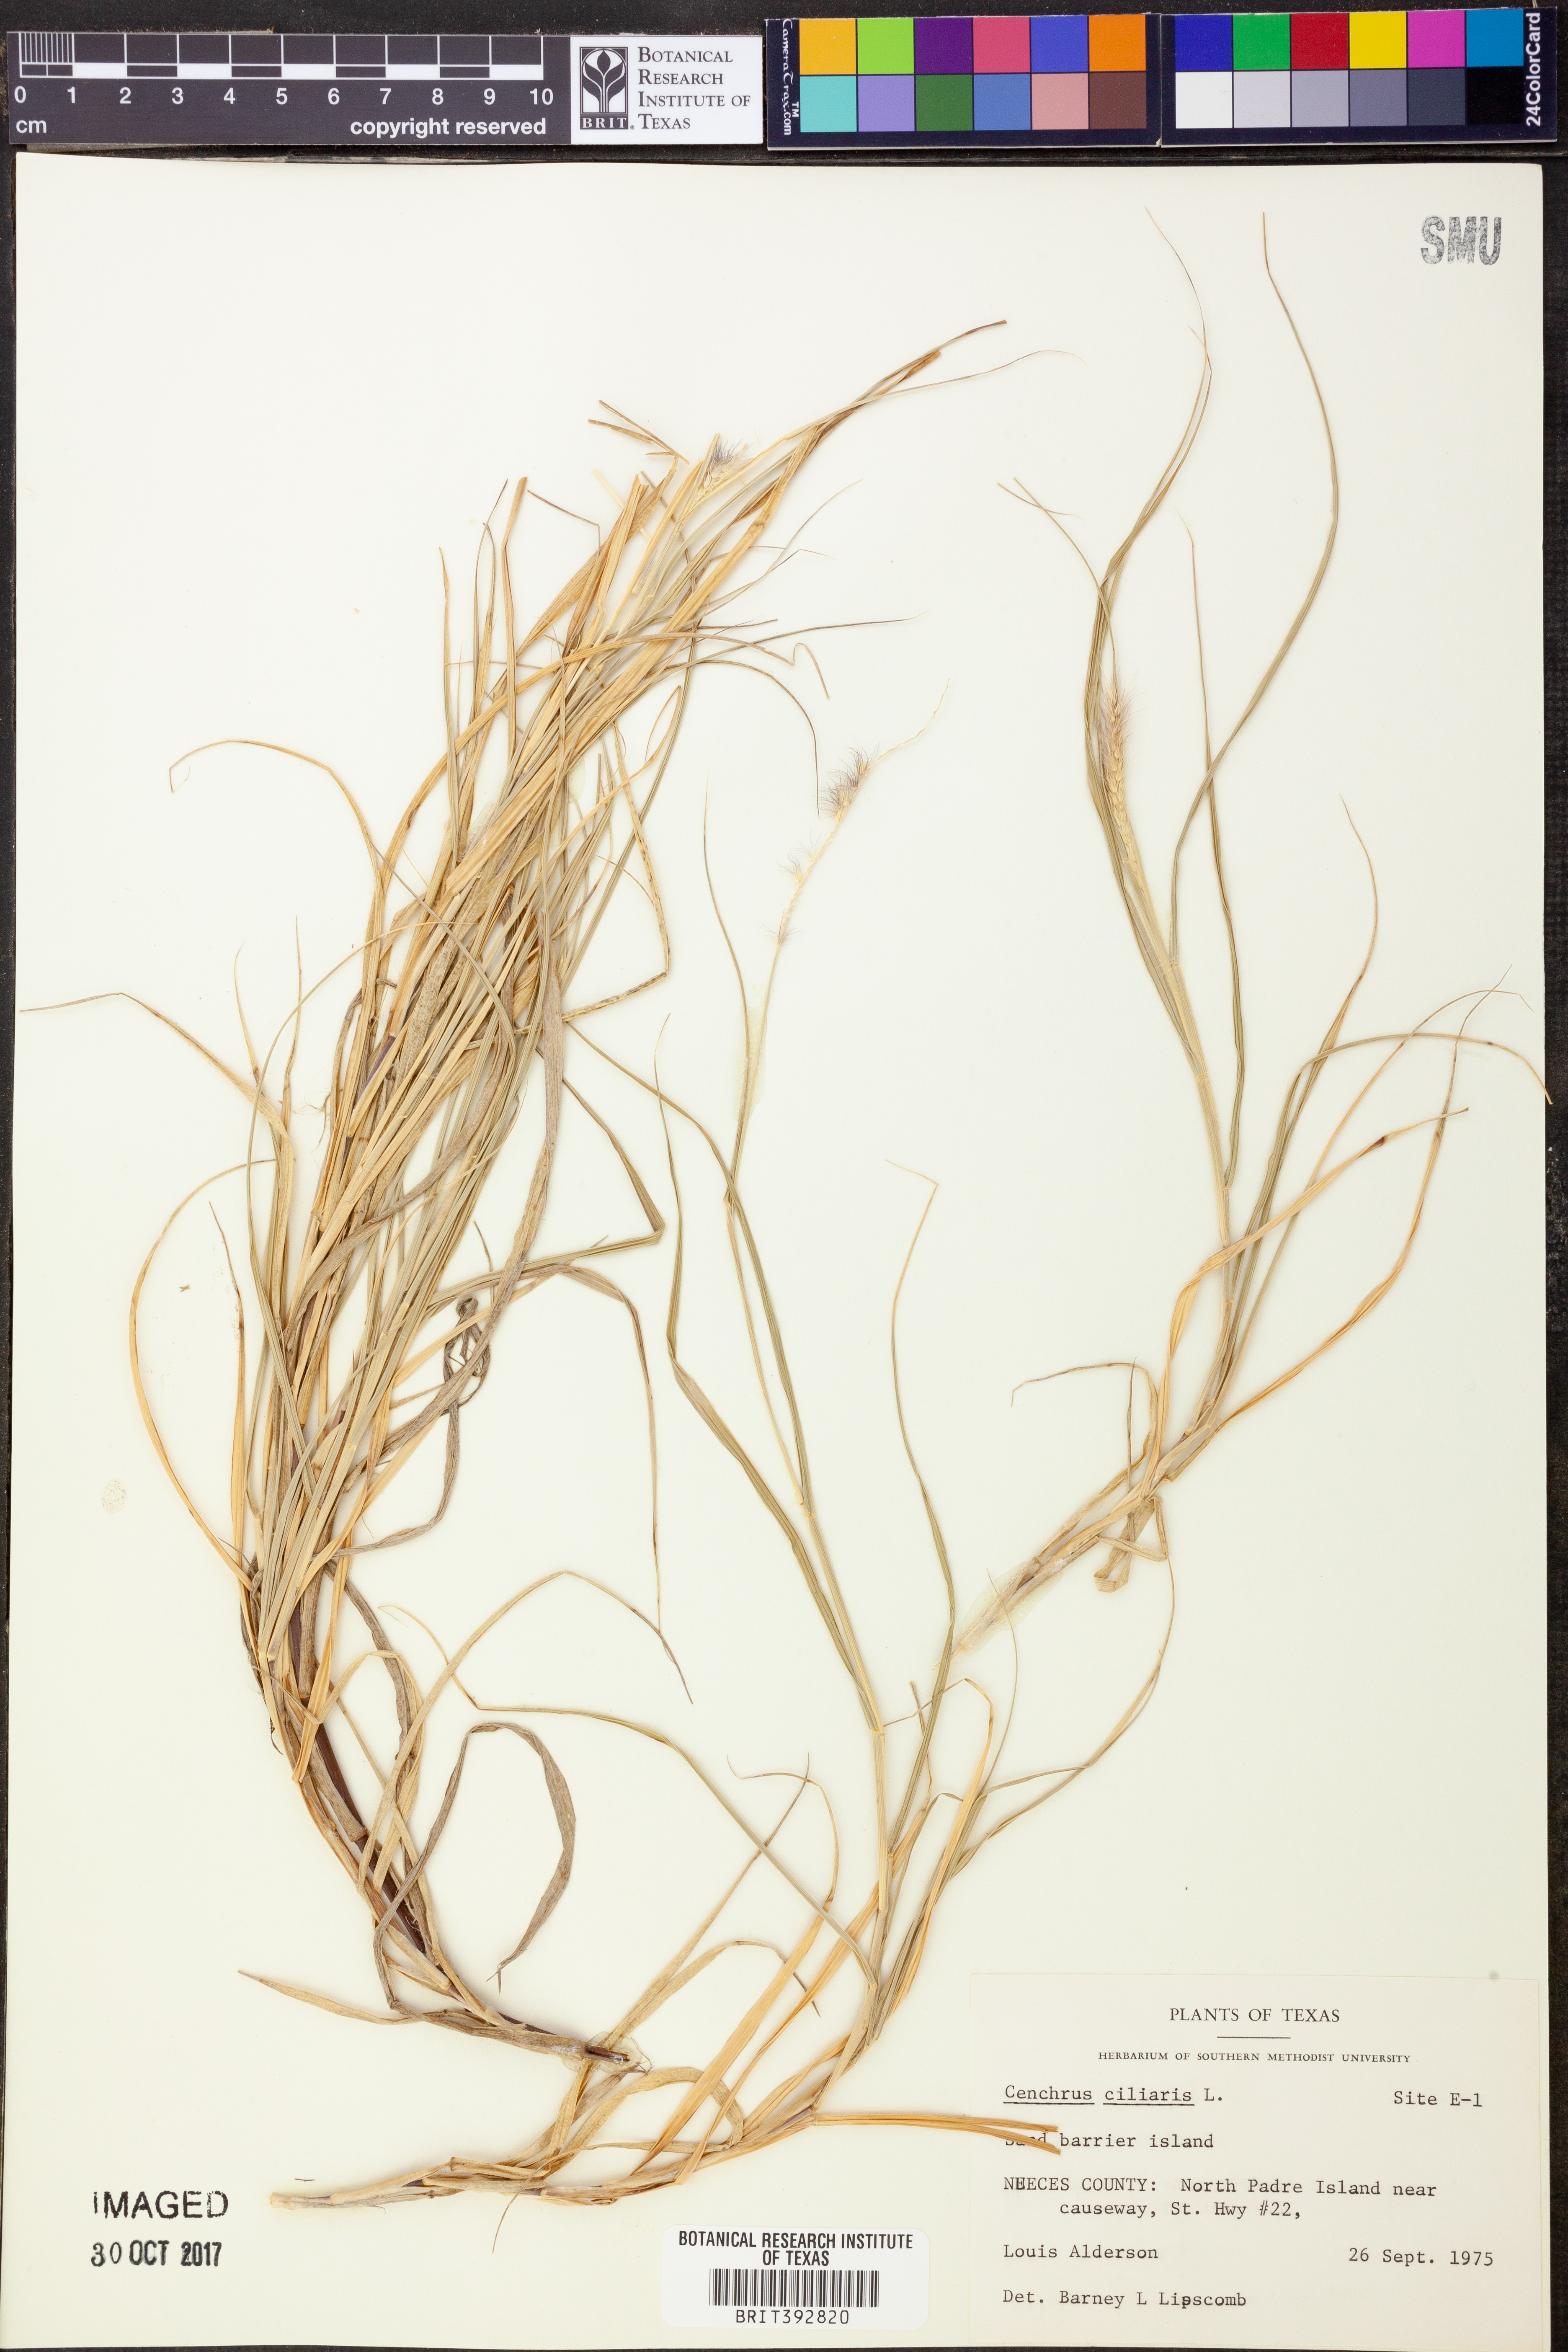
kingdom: Plantae
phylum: Tracheophyta
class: Liliopsida
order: Poales
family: Poaceae
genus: Cenchrus
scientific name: Cenchrus ciliaris
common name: Buffelgrass
